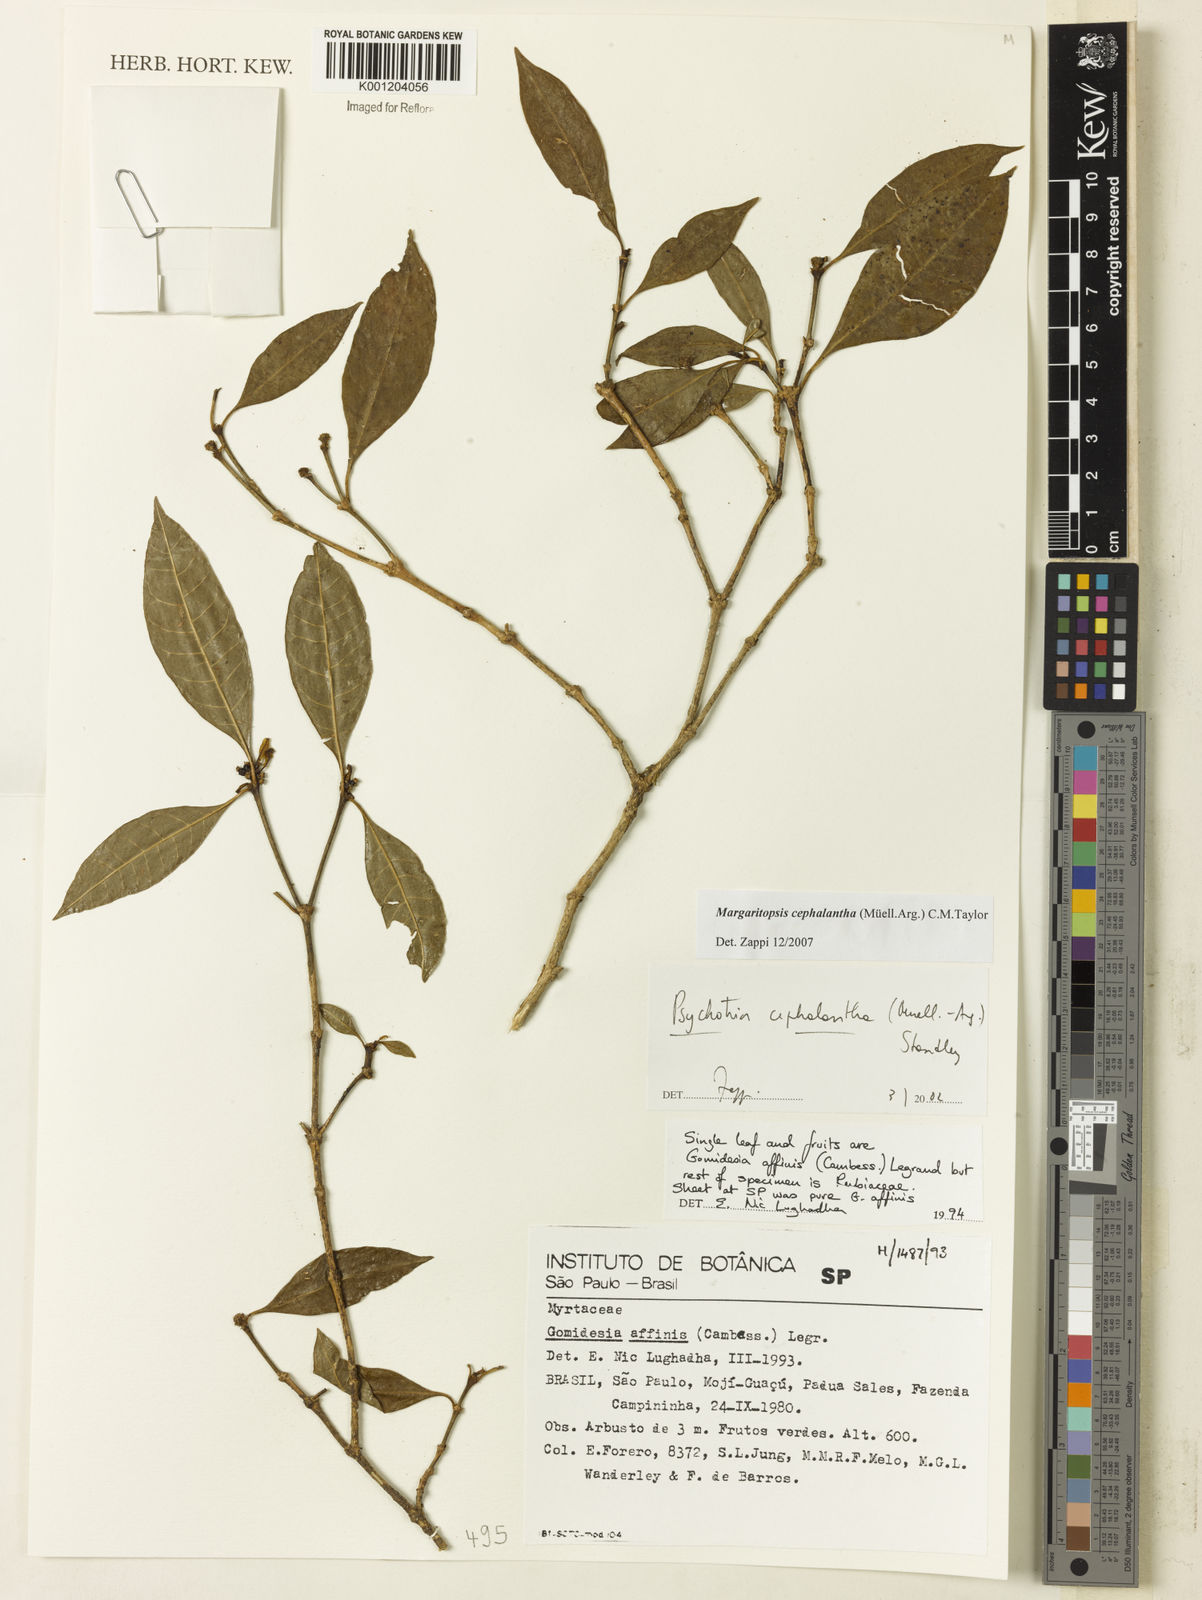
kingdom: Plantae
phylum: Tracheophyta
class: Magnoliopsida
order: Gentianales
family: Rubiaceae
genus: Eumachia
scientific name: Eumachia
